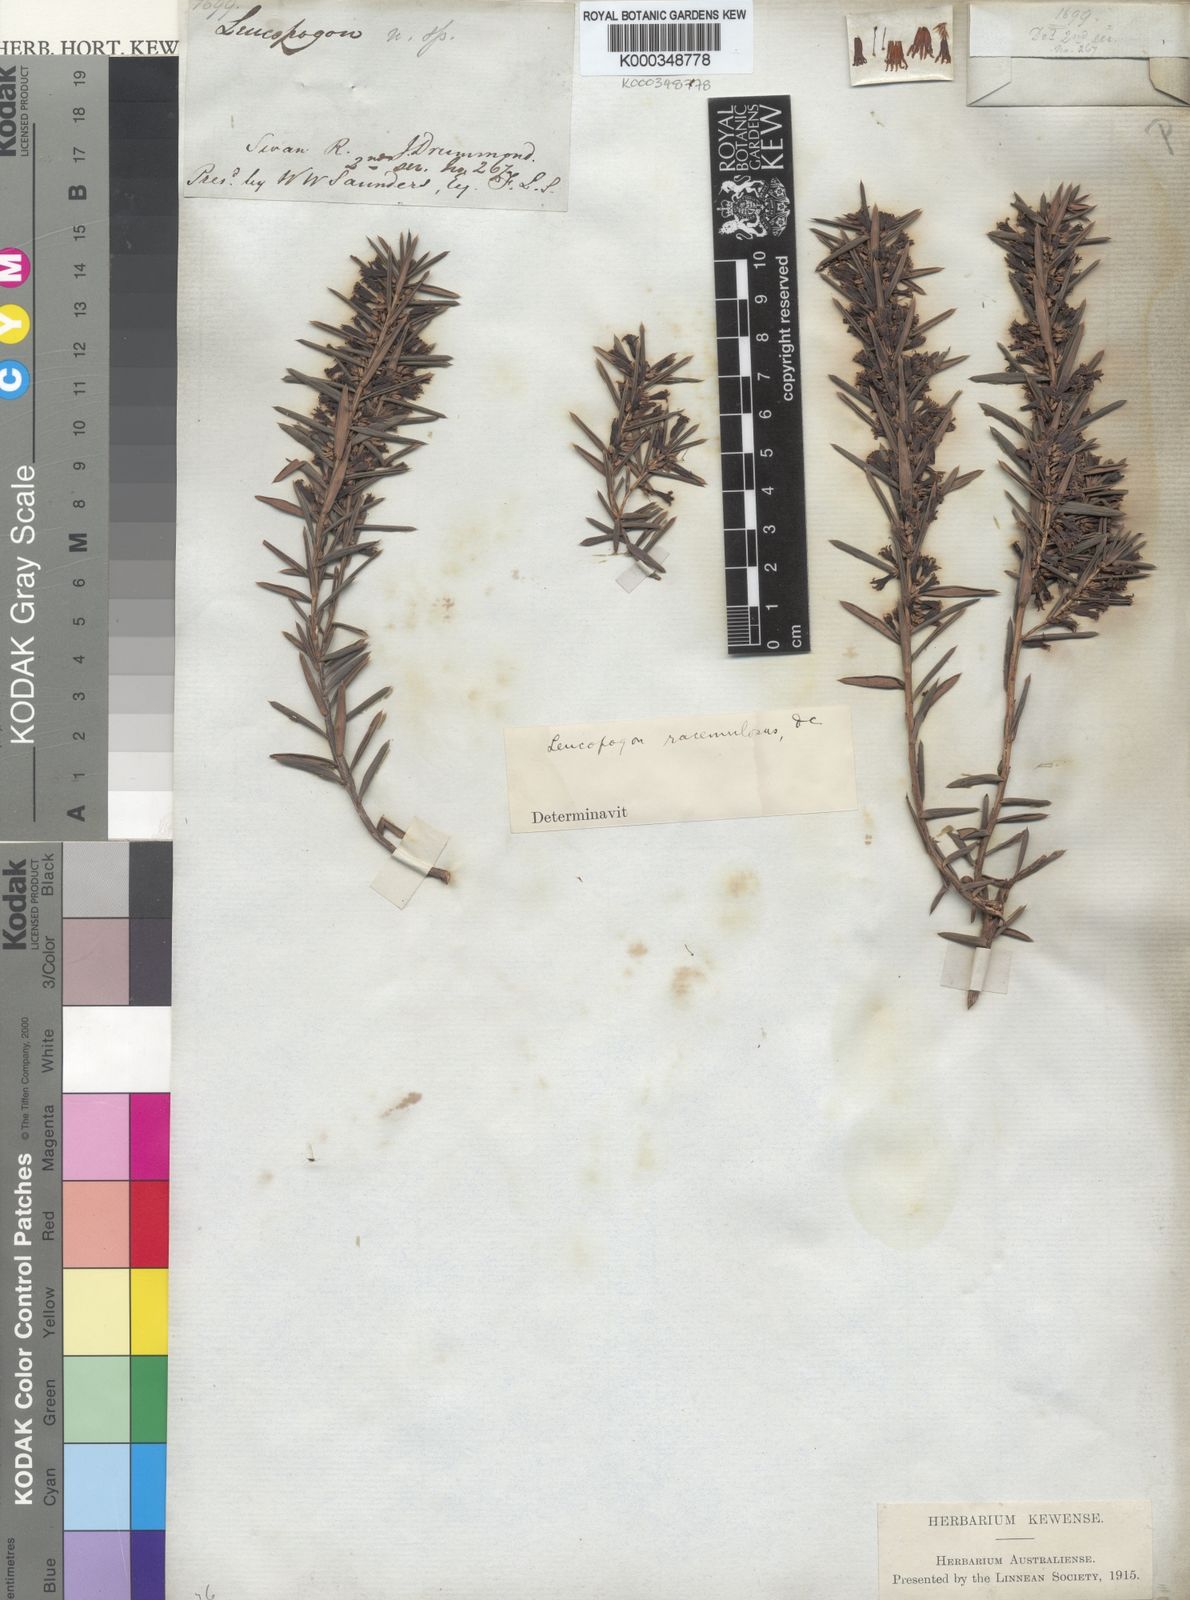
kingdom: Plantae
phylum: Tracheophyta
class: Magnoliopsida
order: Ericales
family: Ericaceae
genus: Styphelia
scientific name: Styphelia racemulosa
